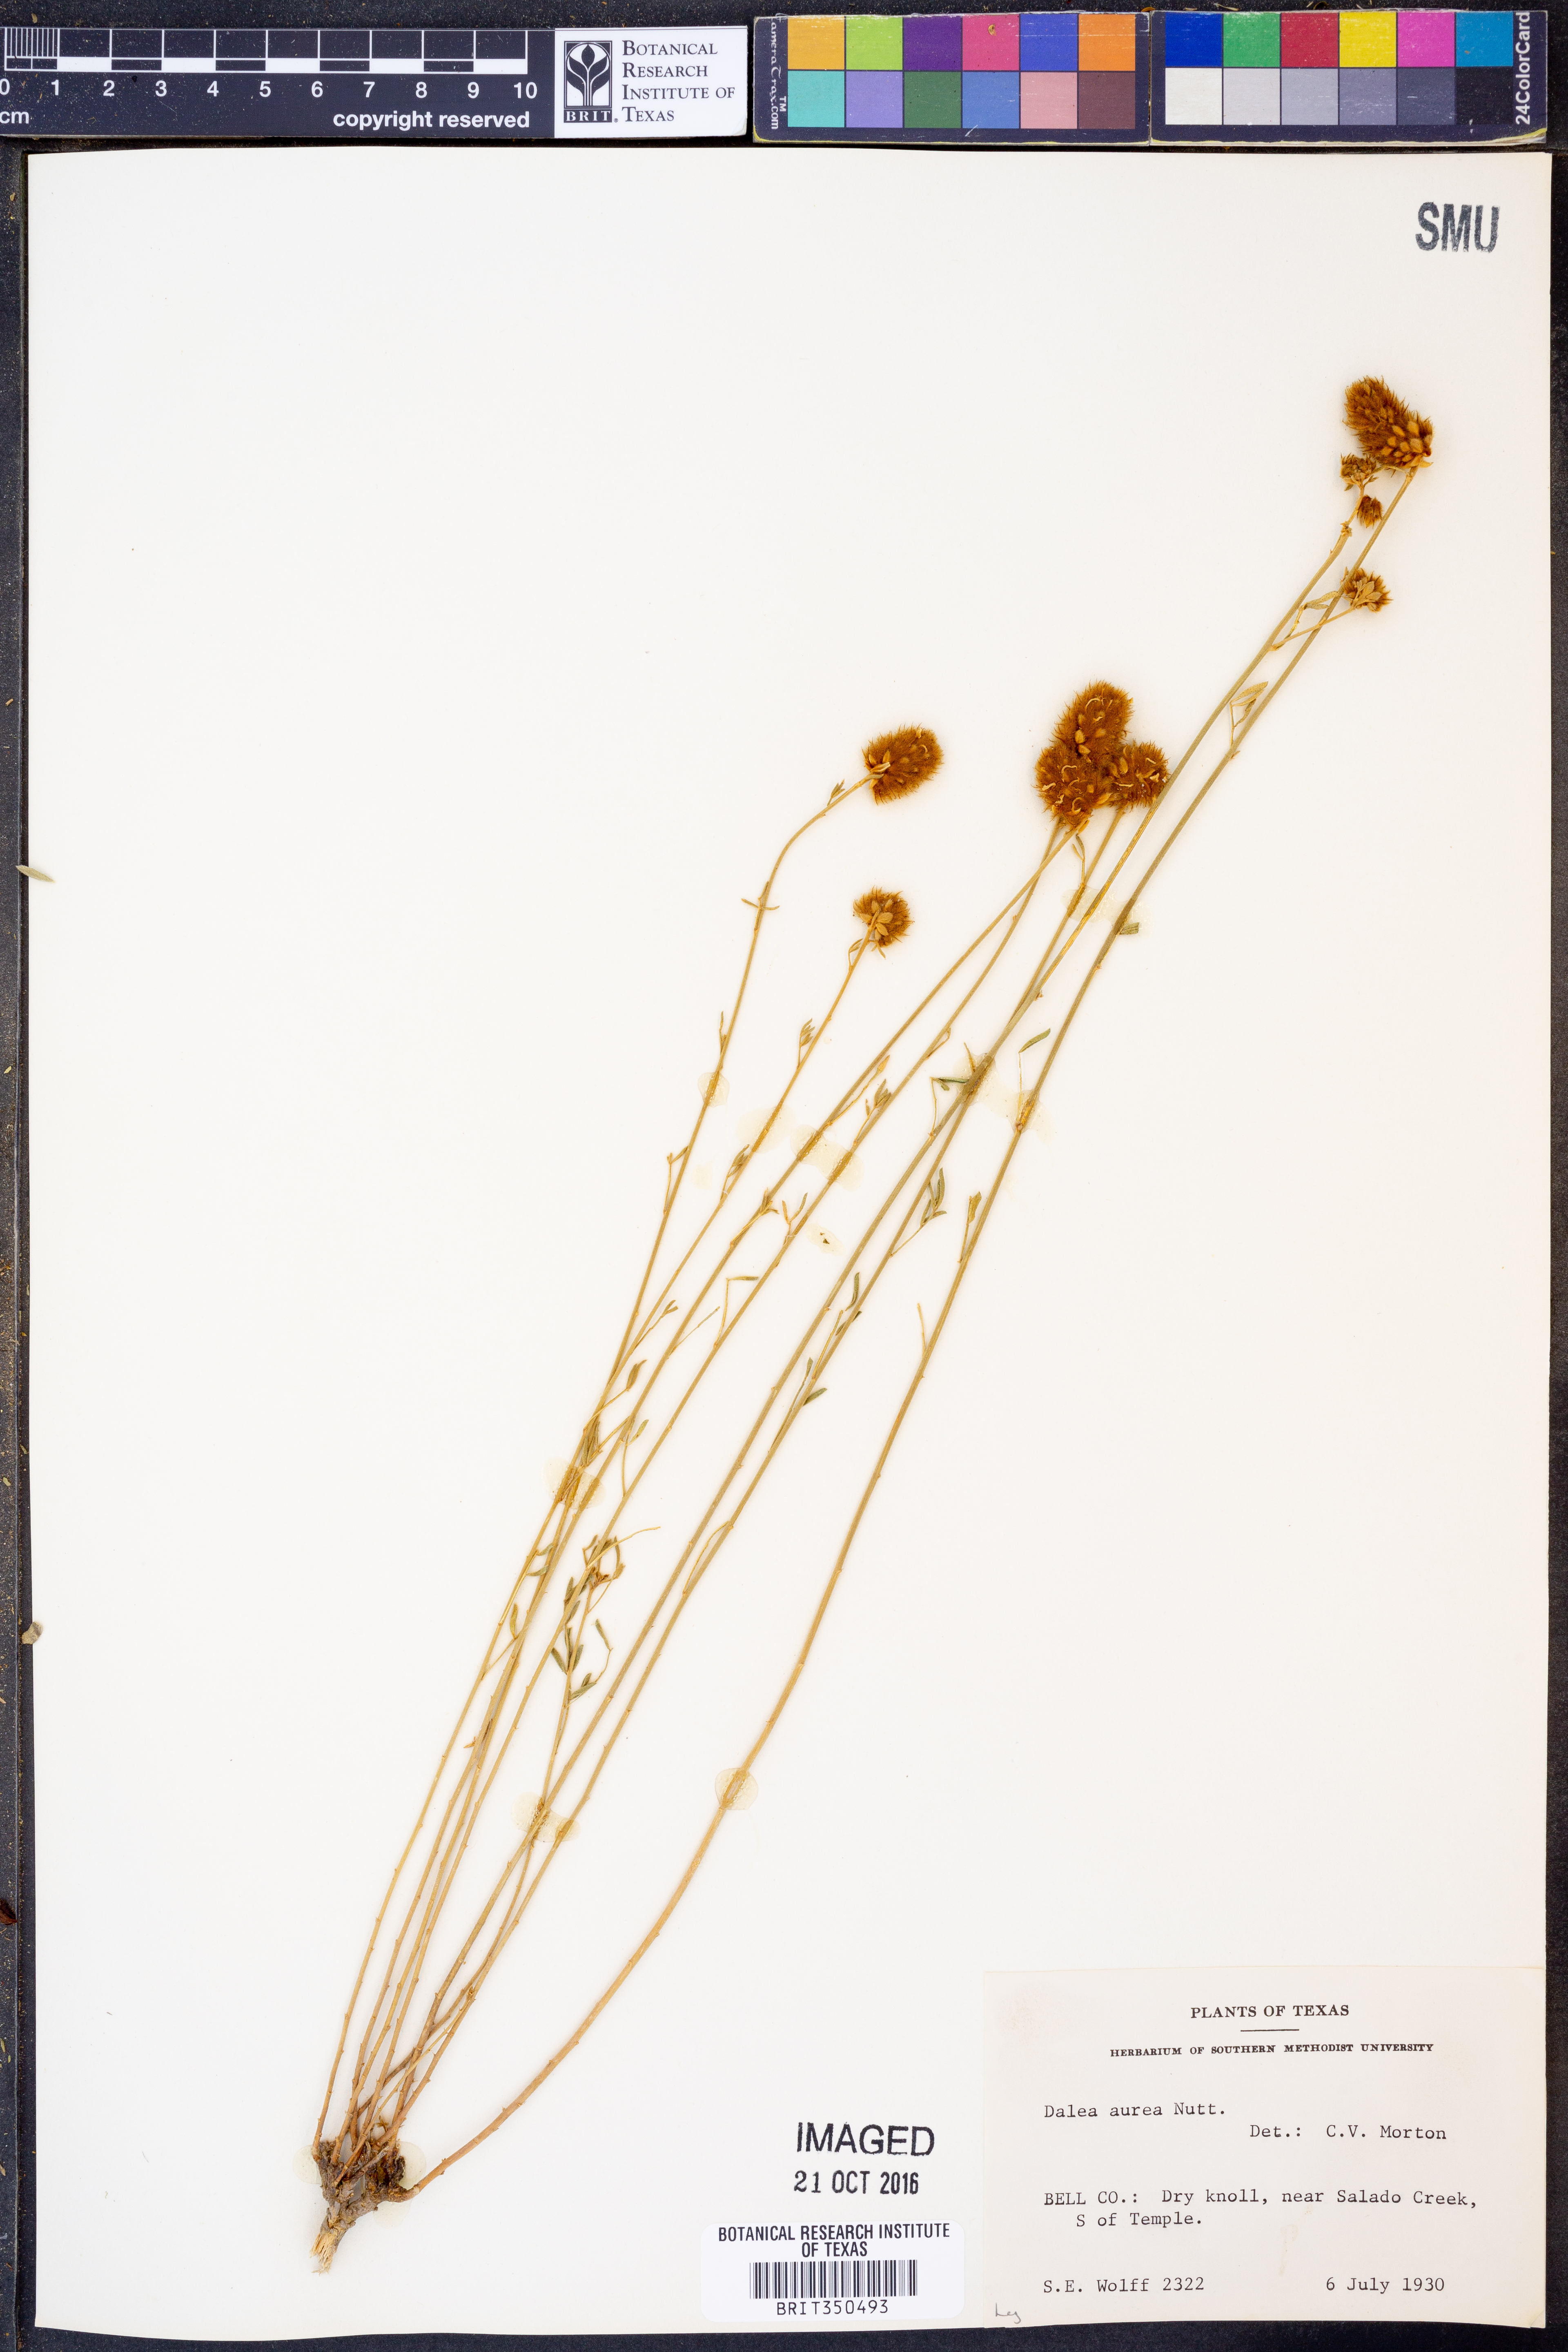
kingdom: Plantae
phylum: Tracheophyta
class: Magnoliopsida
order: Fabales
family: Fabaceae
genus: Dalea
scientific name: Dalea aurea
